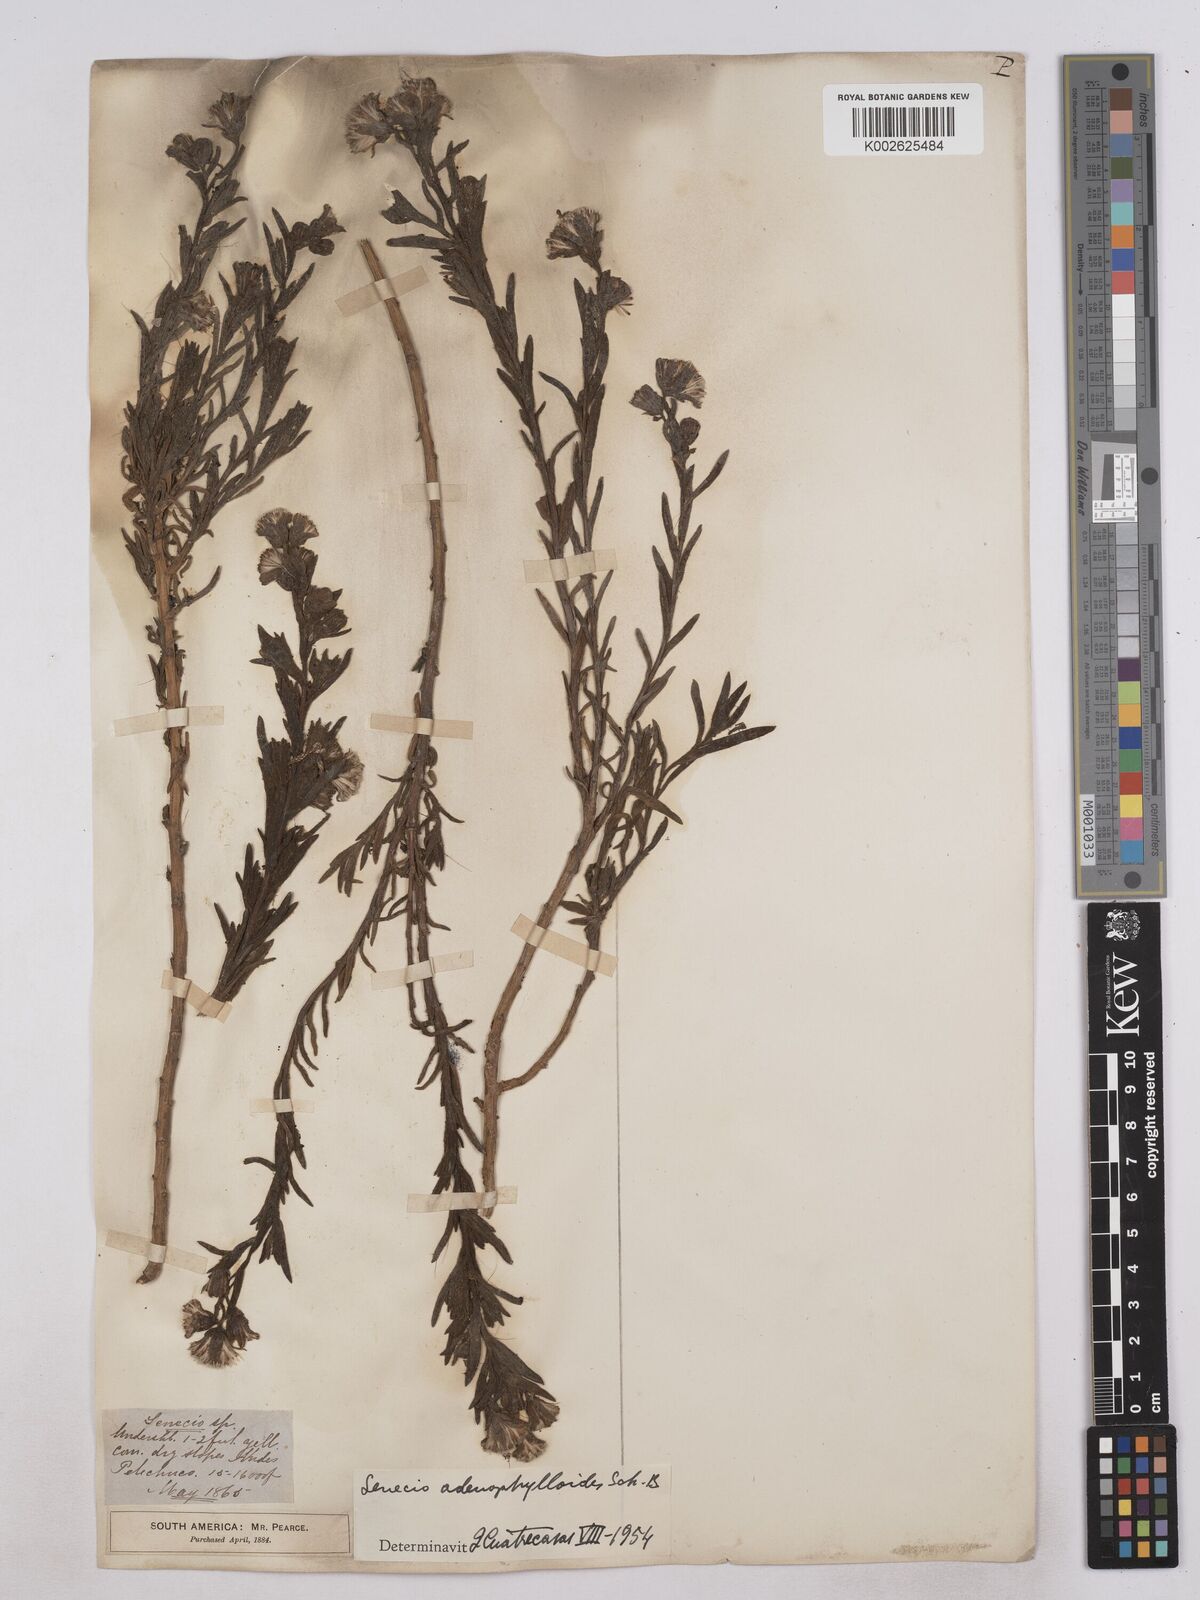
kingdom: Plantae
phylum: Tracheophyta
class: Magnoliopsida
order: Asterales
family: Asteraceae
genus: Culcitium
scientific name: Culcitium canescens
